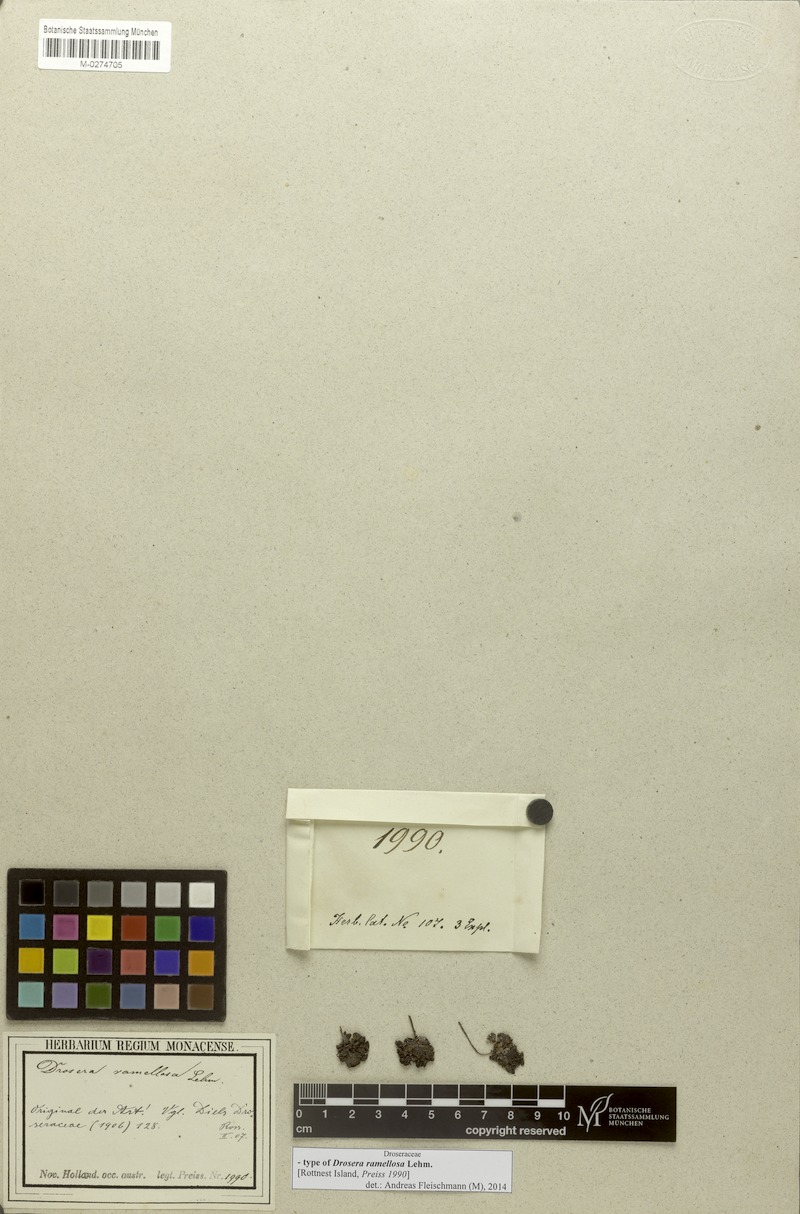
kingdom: Plantae
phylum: Tracheophyta
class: Magnoliopsida
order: Caryophyllales
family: Droseraceae
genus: Drosera
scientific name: Drosera ramellosa
